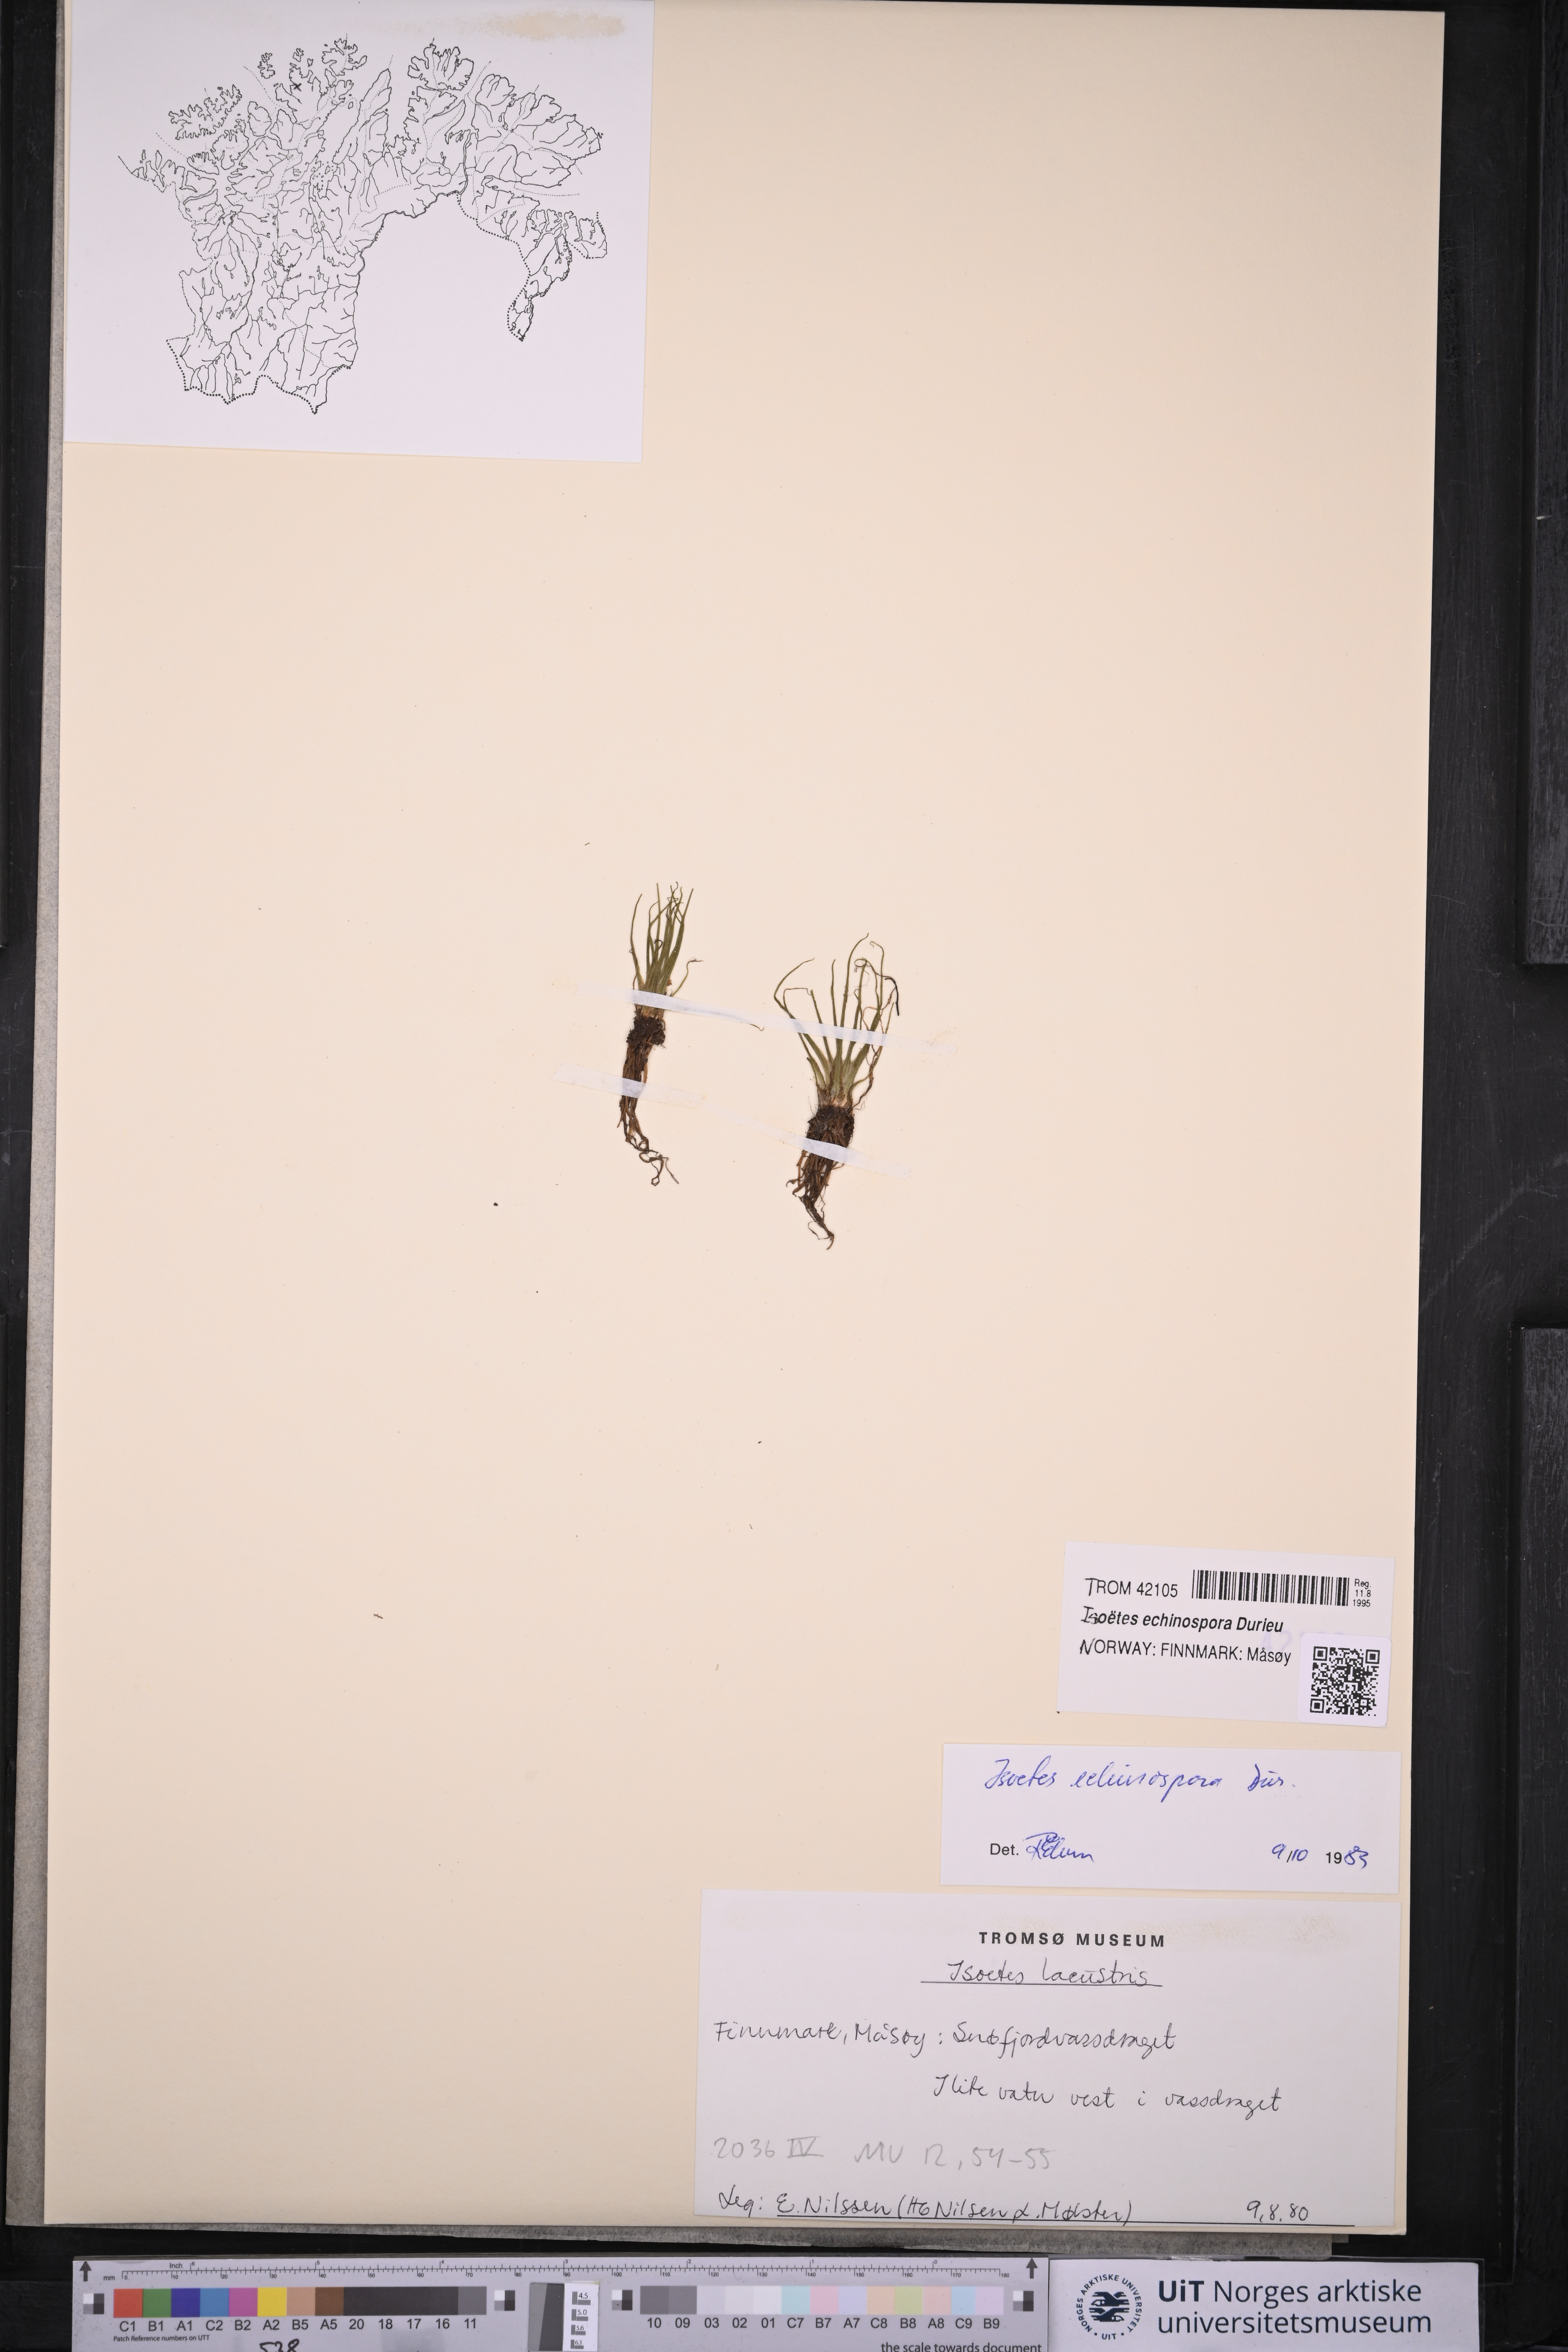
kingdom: Plantae
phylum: Tracheophyta
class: Lycopodiopsida
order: Isoetales
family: Isoetaceae
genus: Isoetes
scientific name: Isoetes echinospora
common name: Spring quillwort
